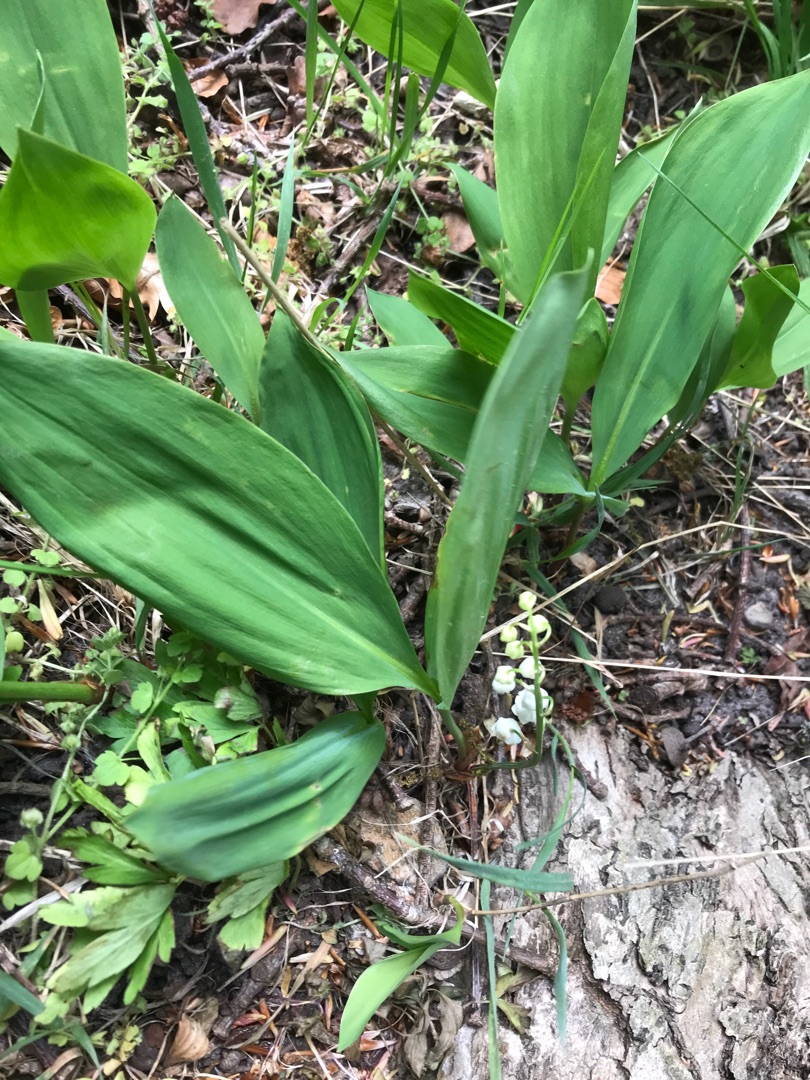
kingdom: Plantae
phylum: Tracheophyta
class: Liliopsida
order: Asparagales
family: Asparagaceae
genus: Convallaria
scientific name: Convallaria majalis
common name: Liljekonval
